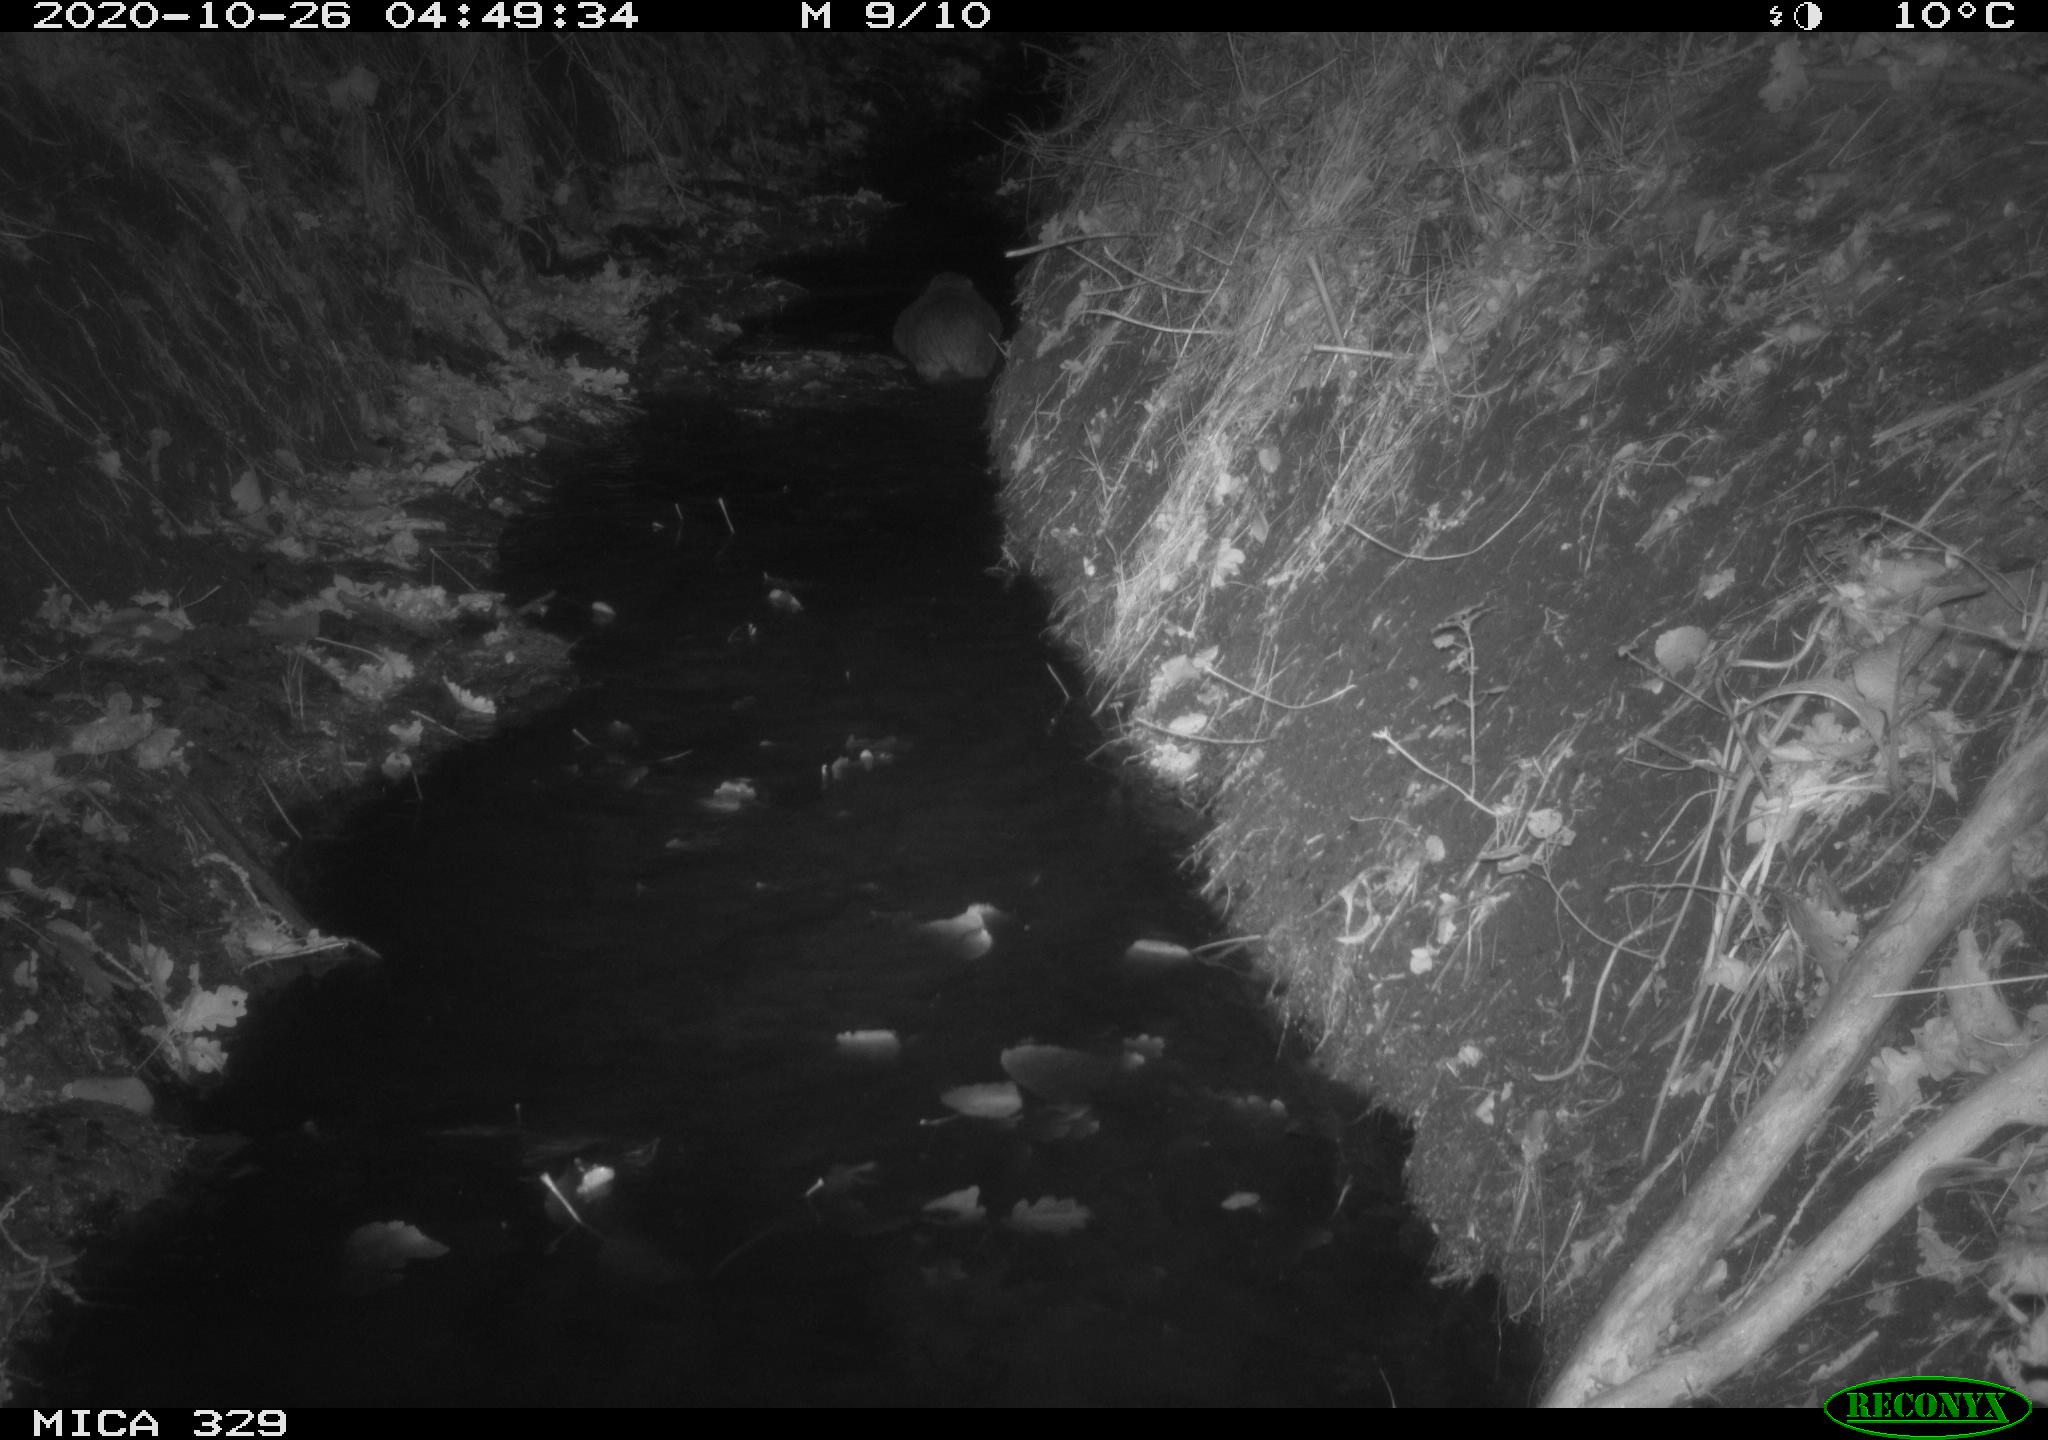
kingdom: Animalia
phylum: Chordata
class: Mammalia
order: Rodentia
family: Myocastoridae
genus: Myocastor
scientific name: Myocastor coypus
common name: Coypu
